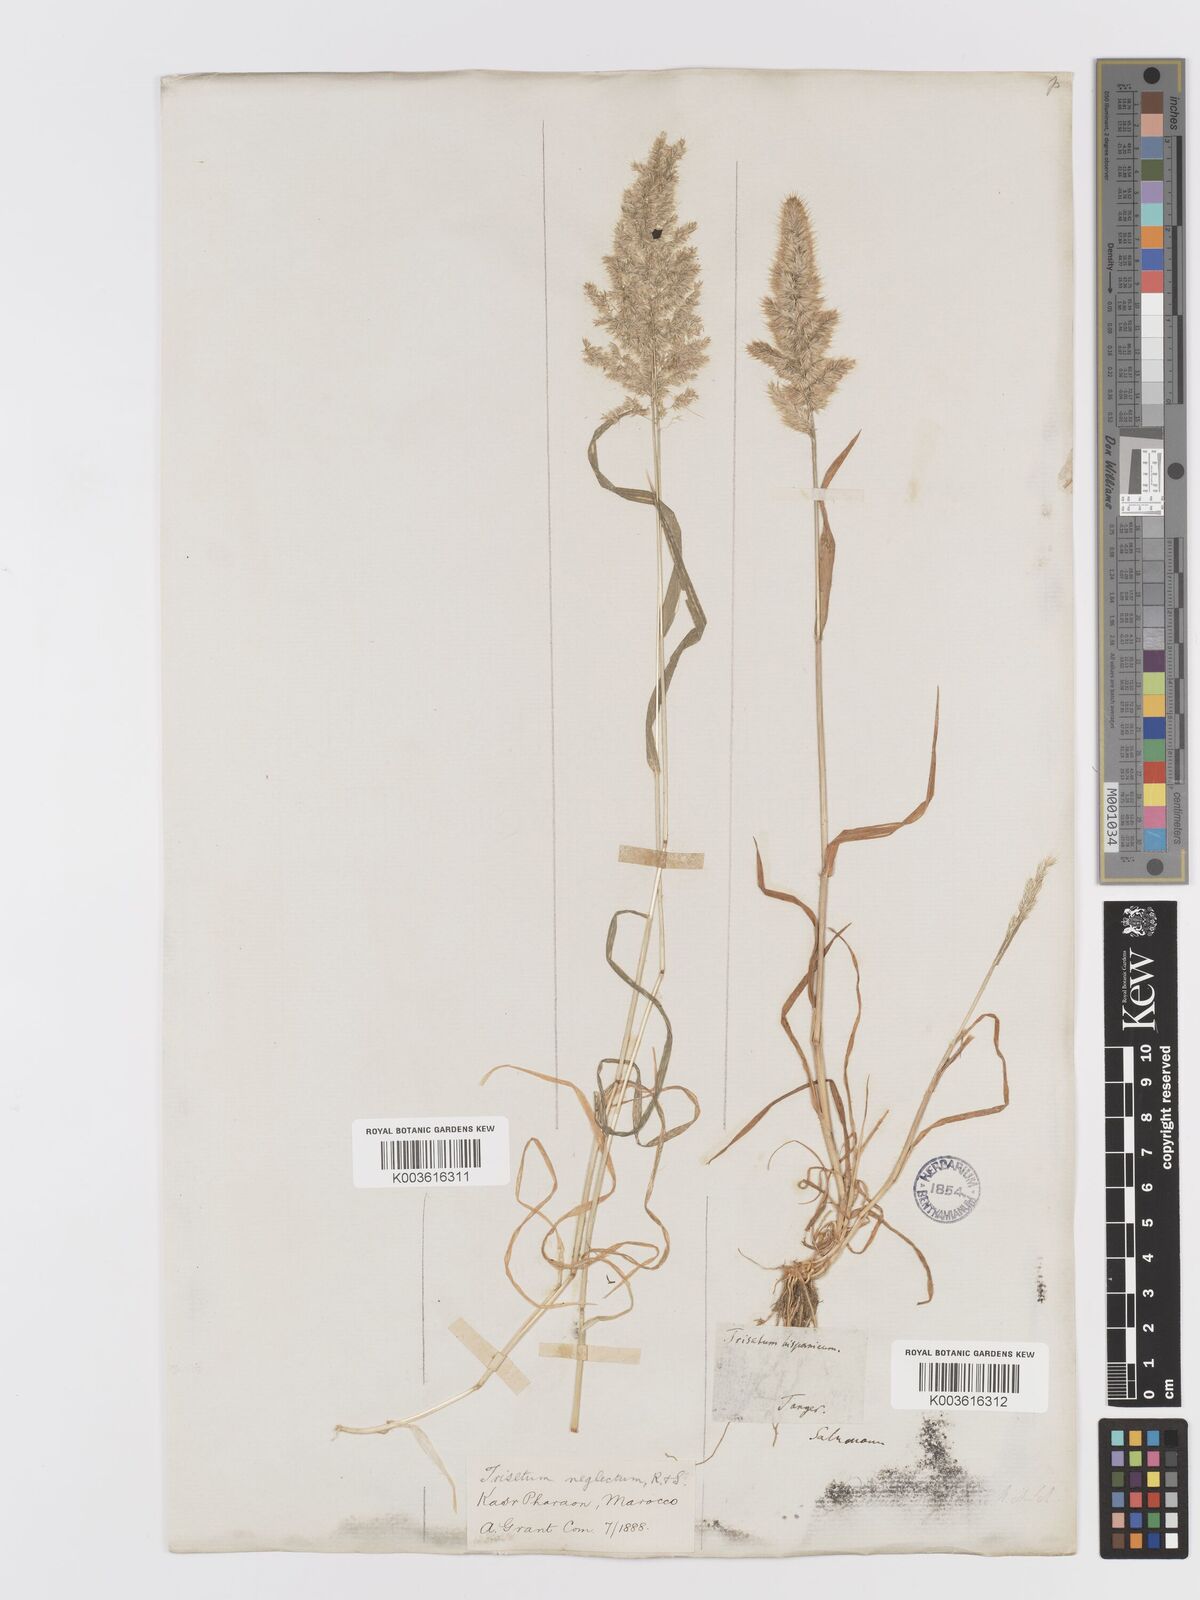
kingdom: Plantae
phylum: Tracheophyta
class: Liliopsida
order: Poales
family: Poaceae
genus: Trisetaria
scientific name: Trisetaria panicea
